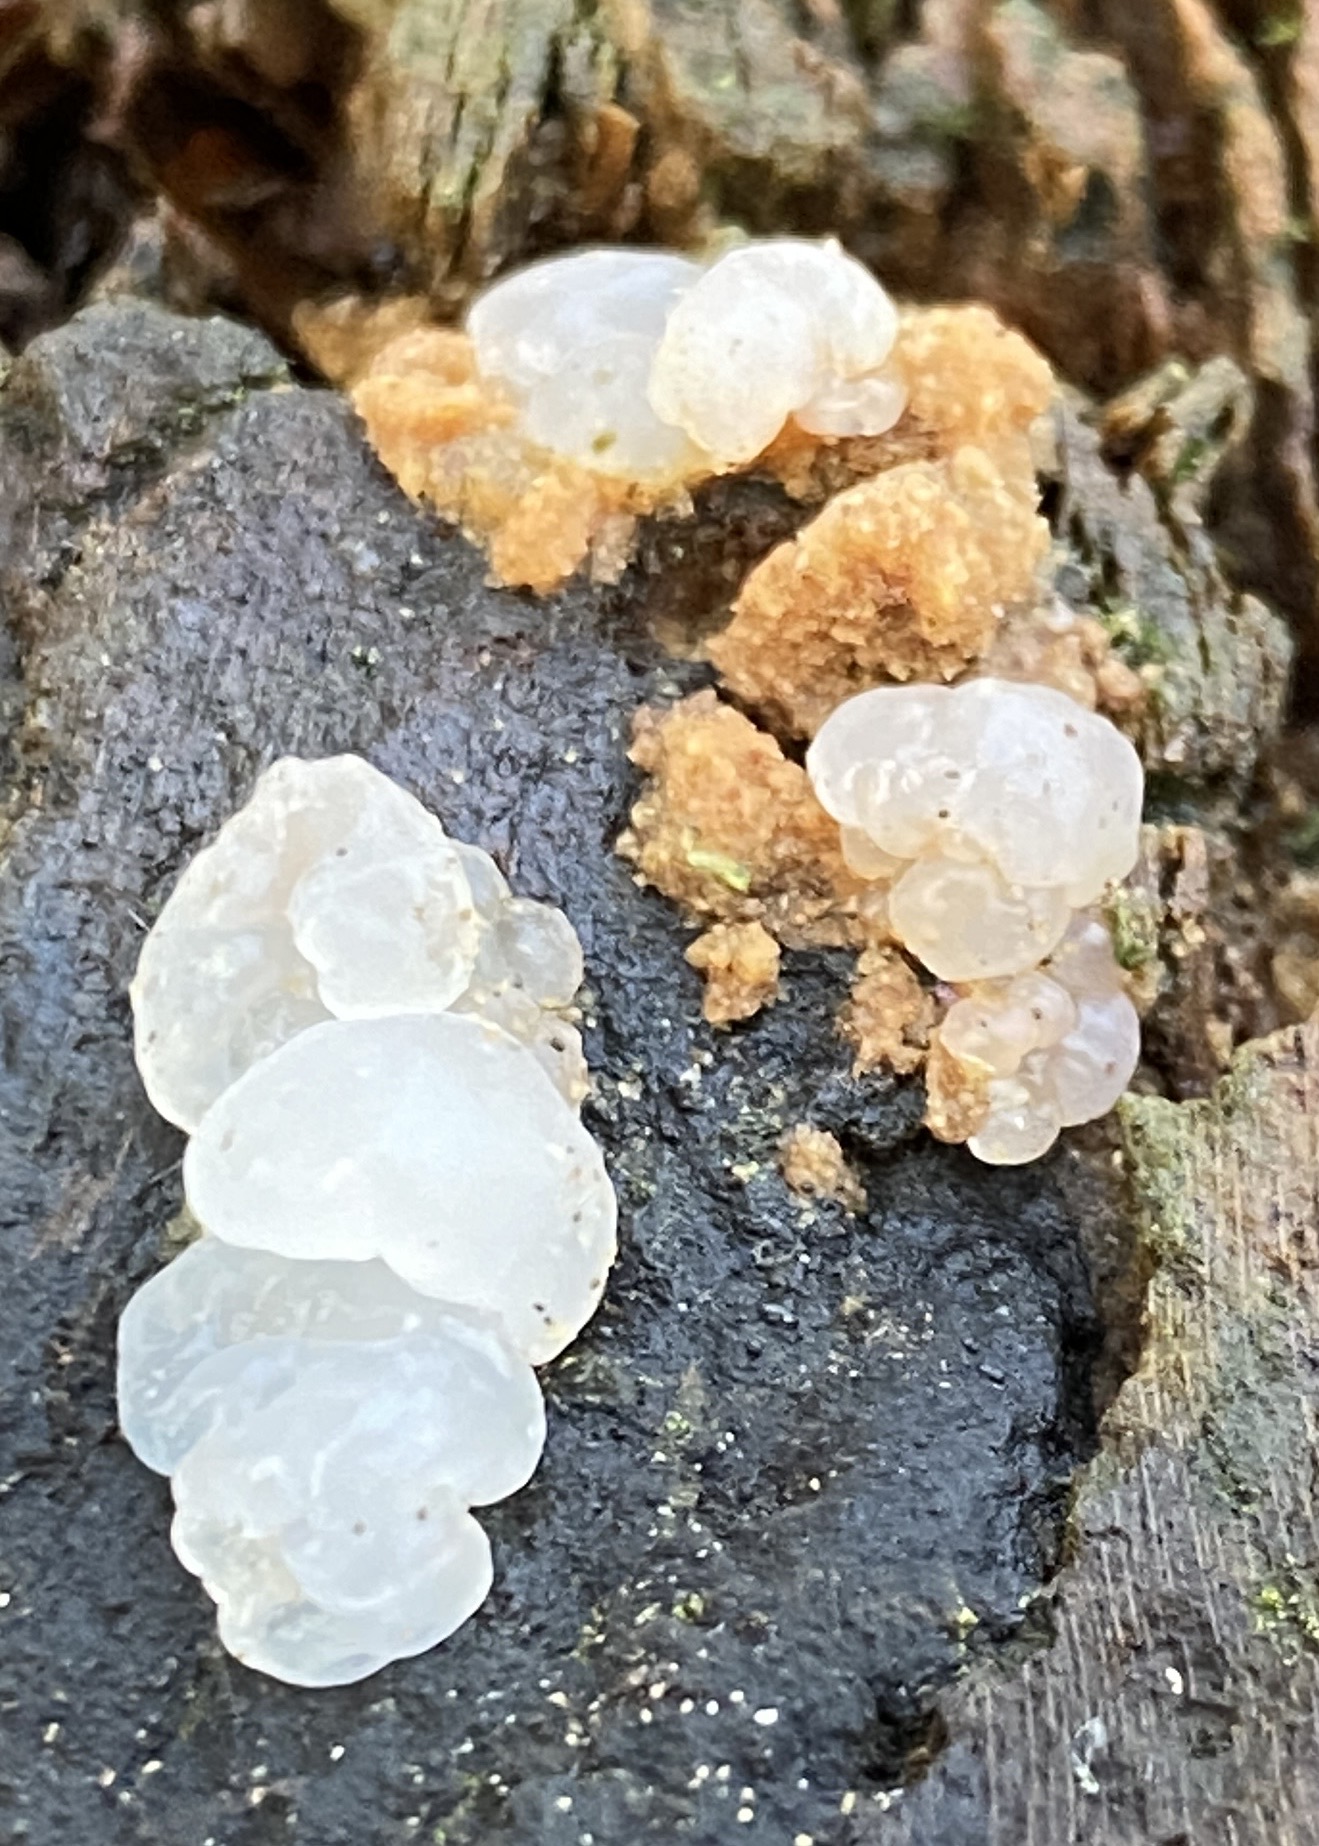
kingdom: Fungi
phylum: Basidiomycota
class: Tremellomycetes
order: Tremellales
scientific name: Tremellales
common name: bævresvampordenen
